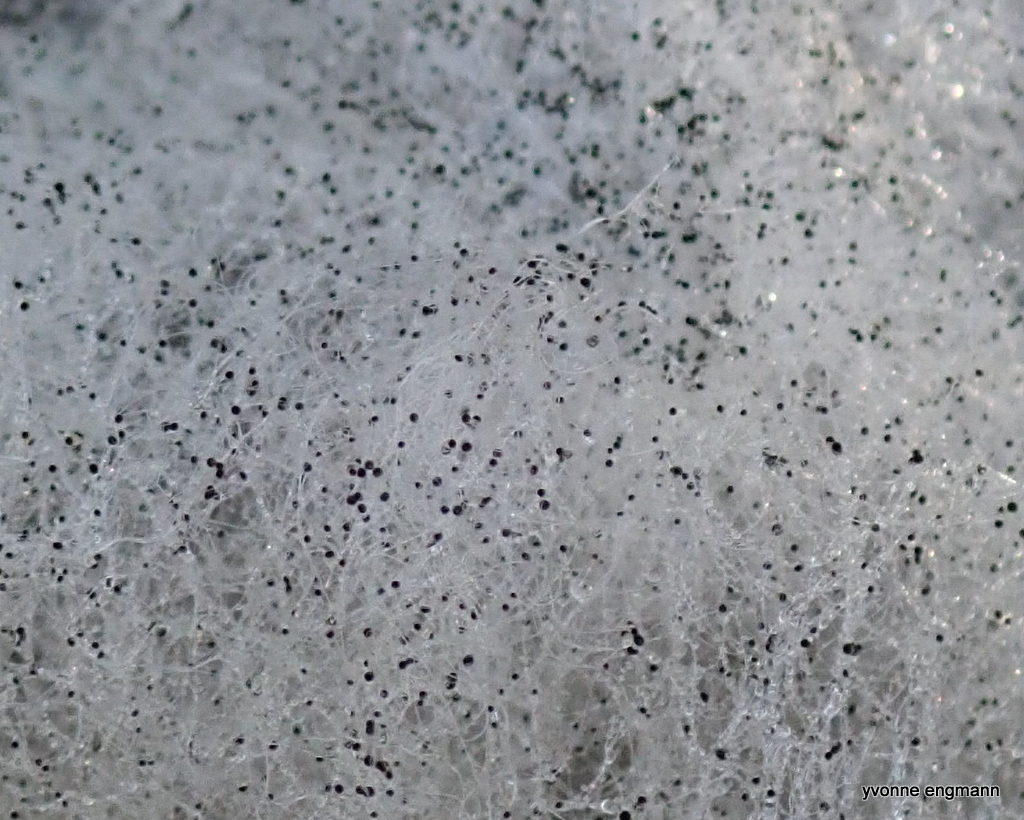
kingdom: Fungi
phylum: Mucoromycota
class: Mucoromycetes
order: Mucorales
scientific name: Mucorales
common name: mugordenen
